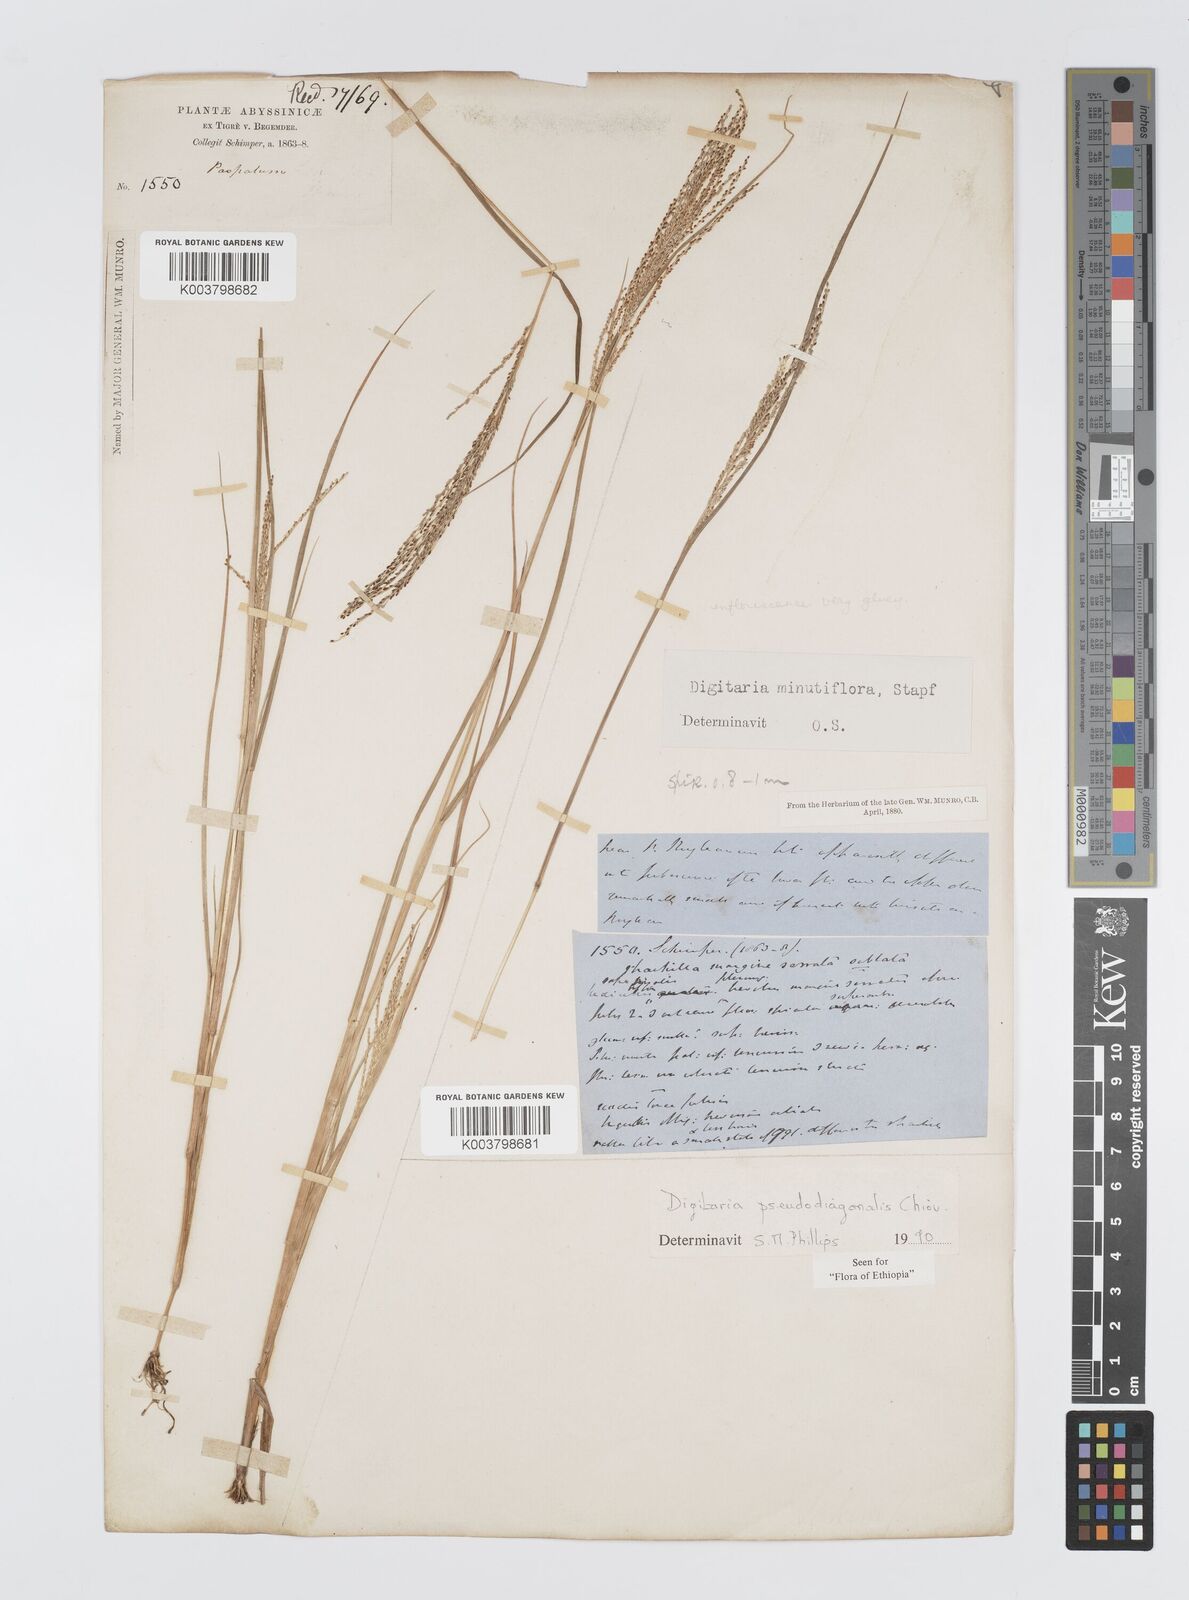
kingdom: Plantae
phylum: Tracheophyta
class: Liliopsida
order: Poales
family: Poaceae
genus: Digitaria
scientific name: Digitaria pseudodiagonalis
